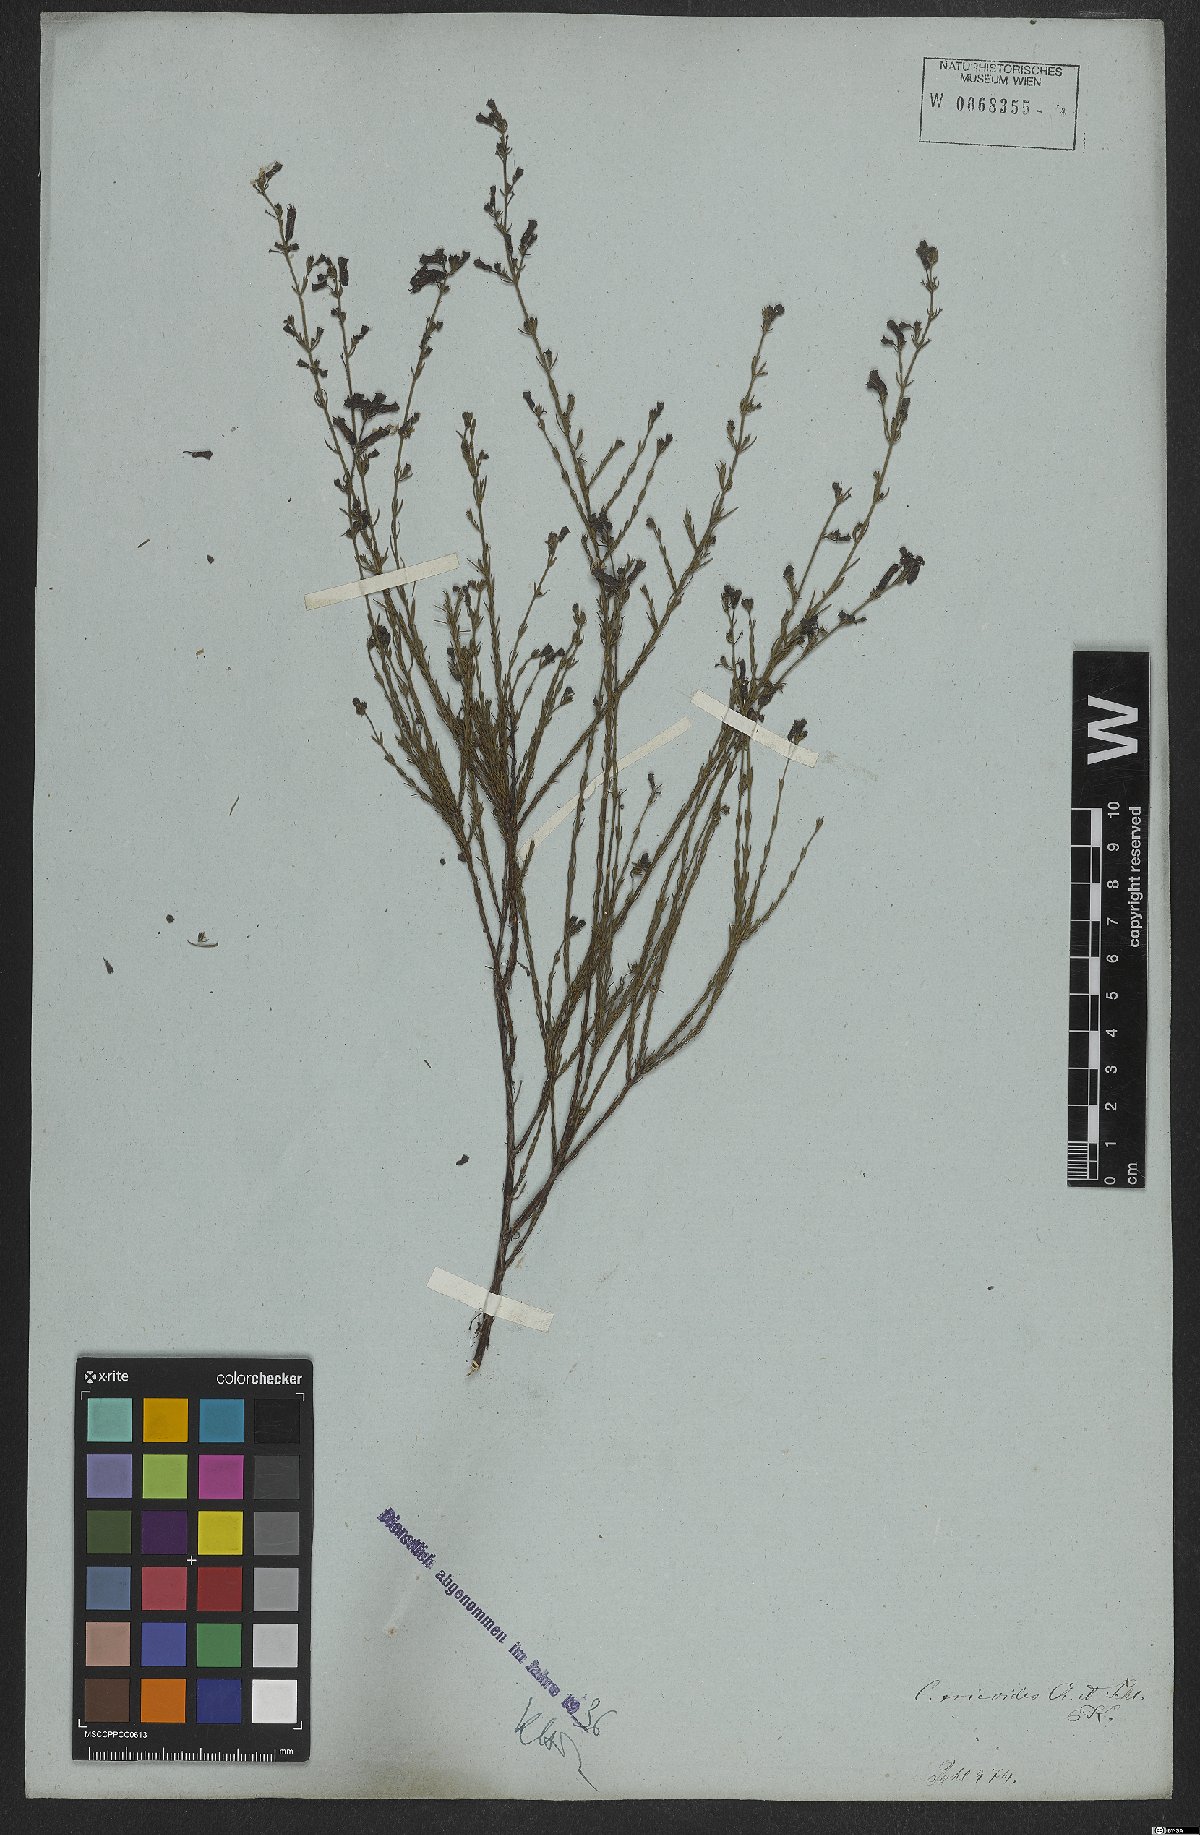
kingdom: Plantae
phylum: Tracheophyta
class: Magnoliopsida
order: Myrtales
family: Lythraceae
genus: Cuphea
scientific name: Cuphea ericoides
